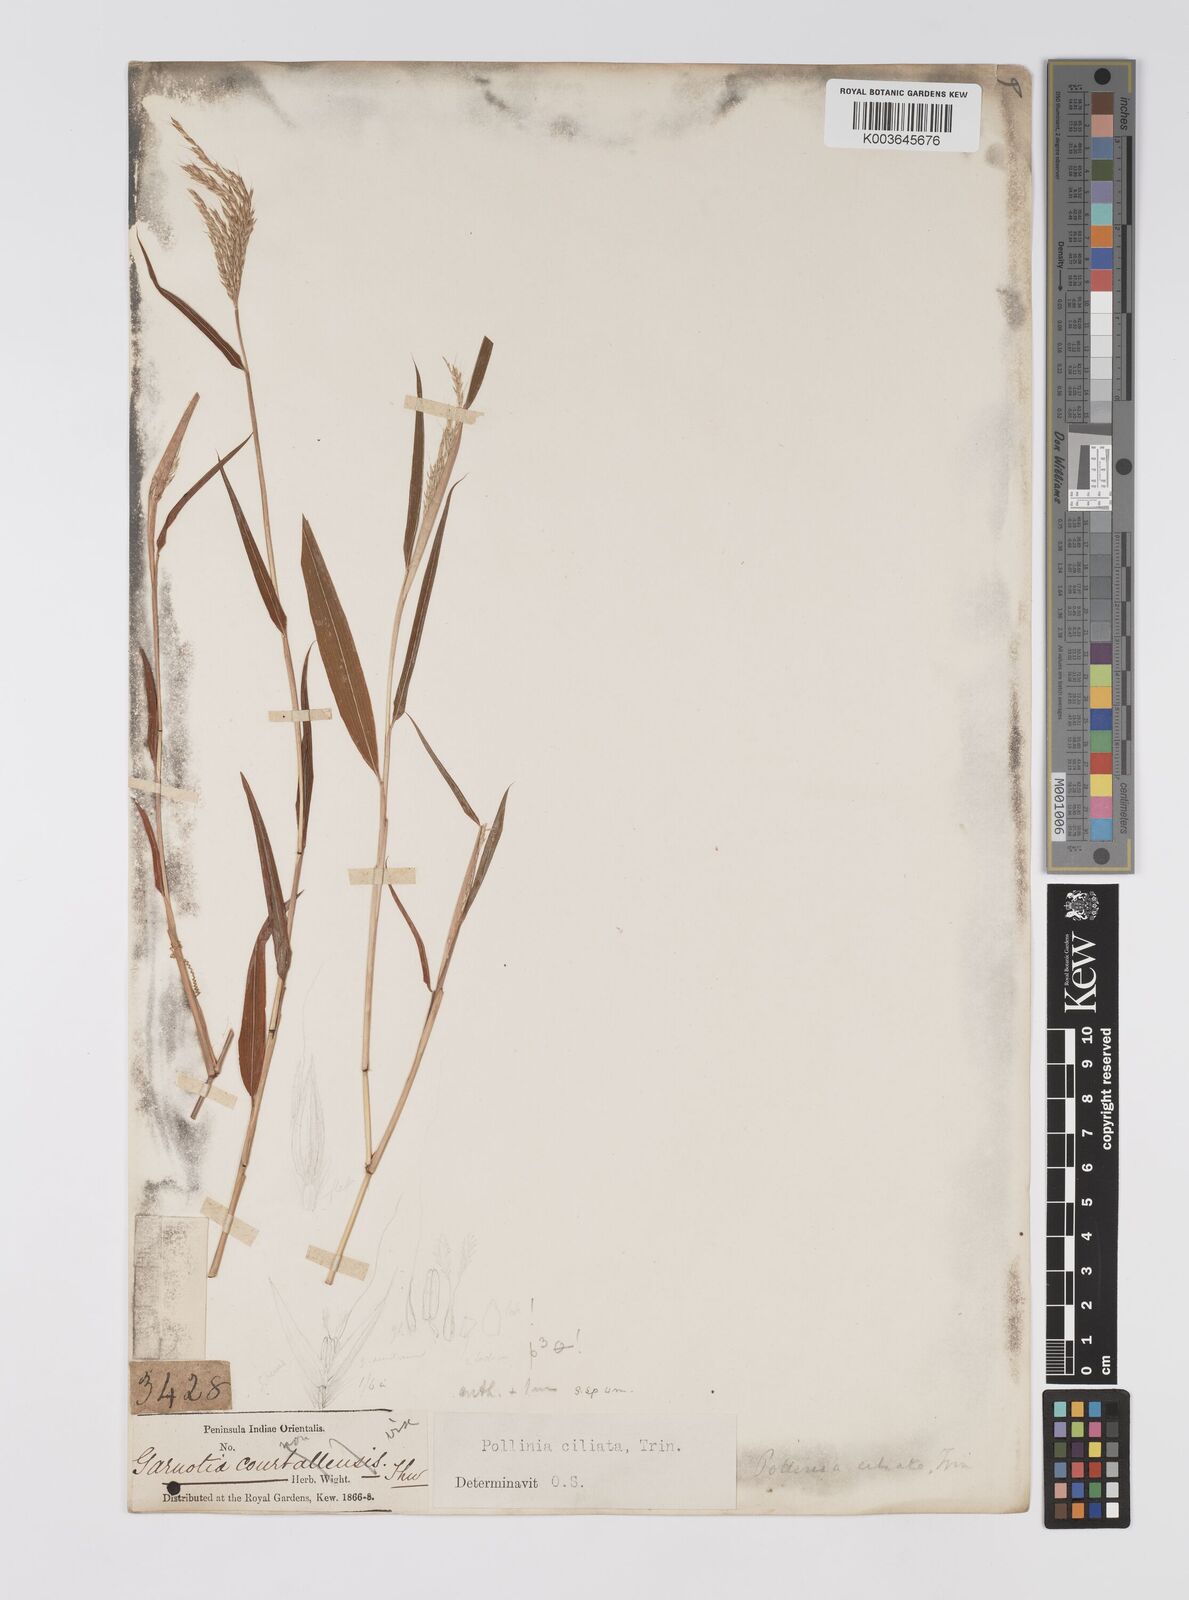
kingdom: Plantae
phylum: Tracheophyta
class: Liliopsida
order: Poales
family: Poaceae
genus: Microstegium
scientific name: Microstegium fasciculatum
